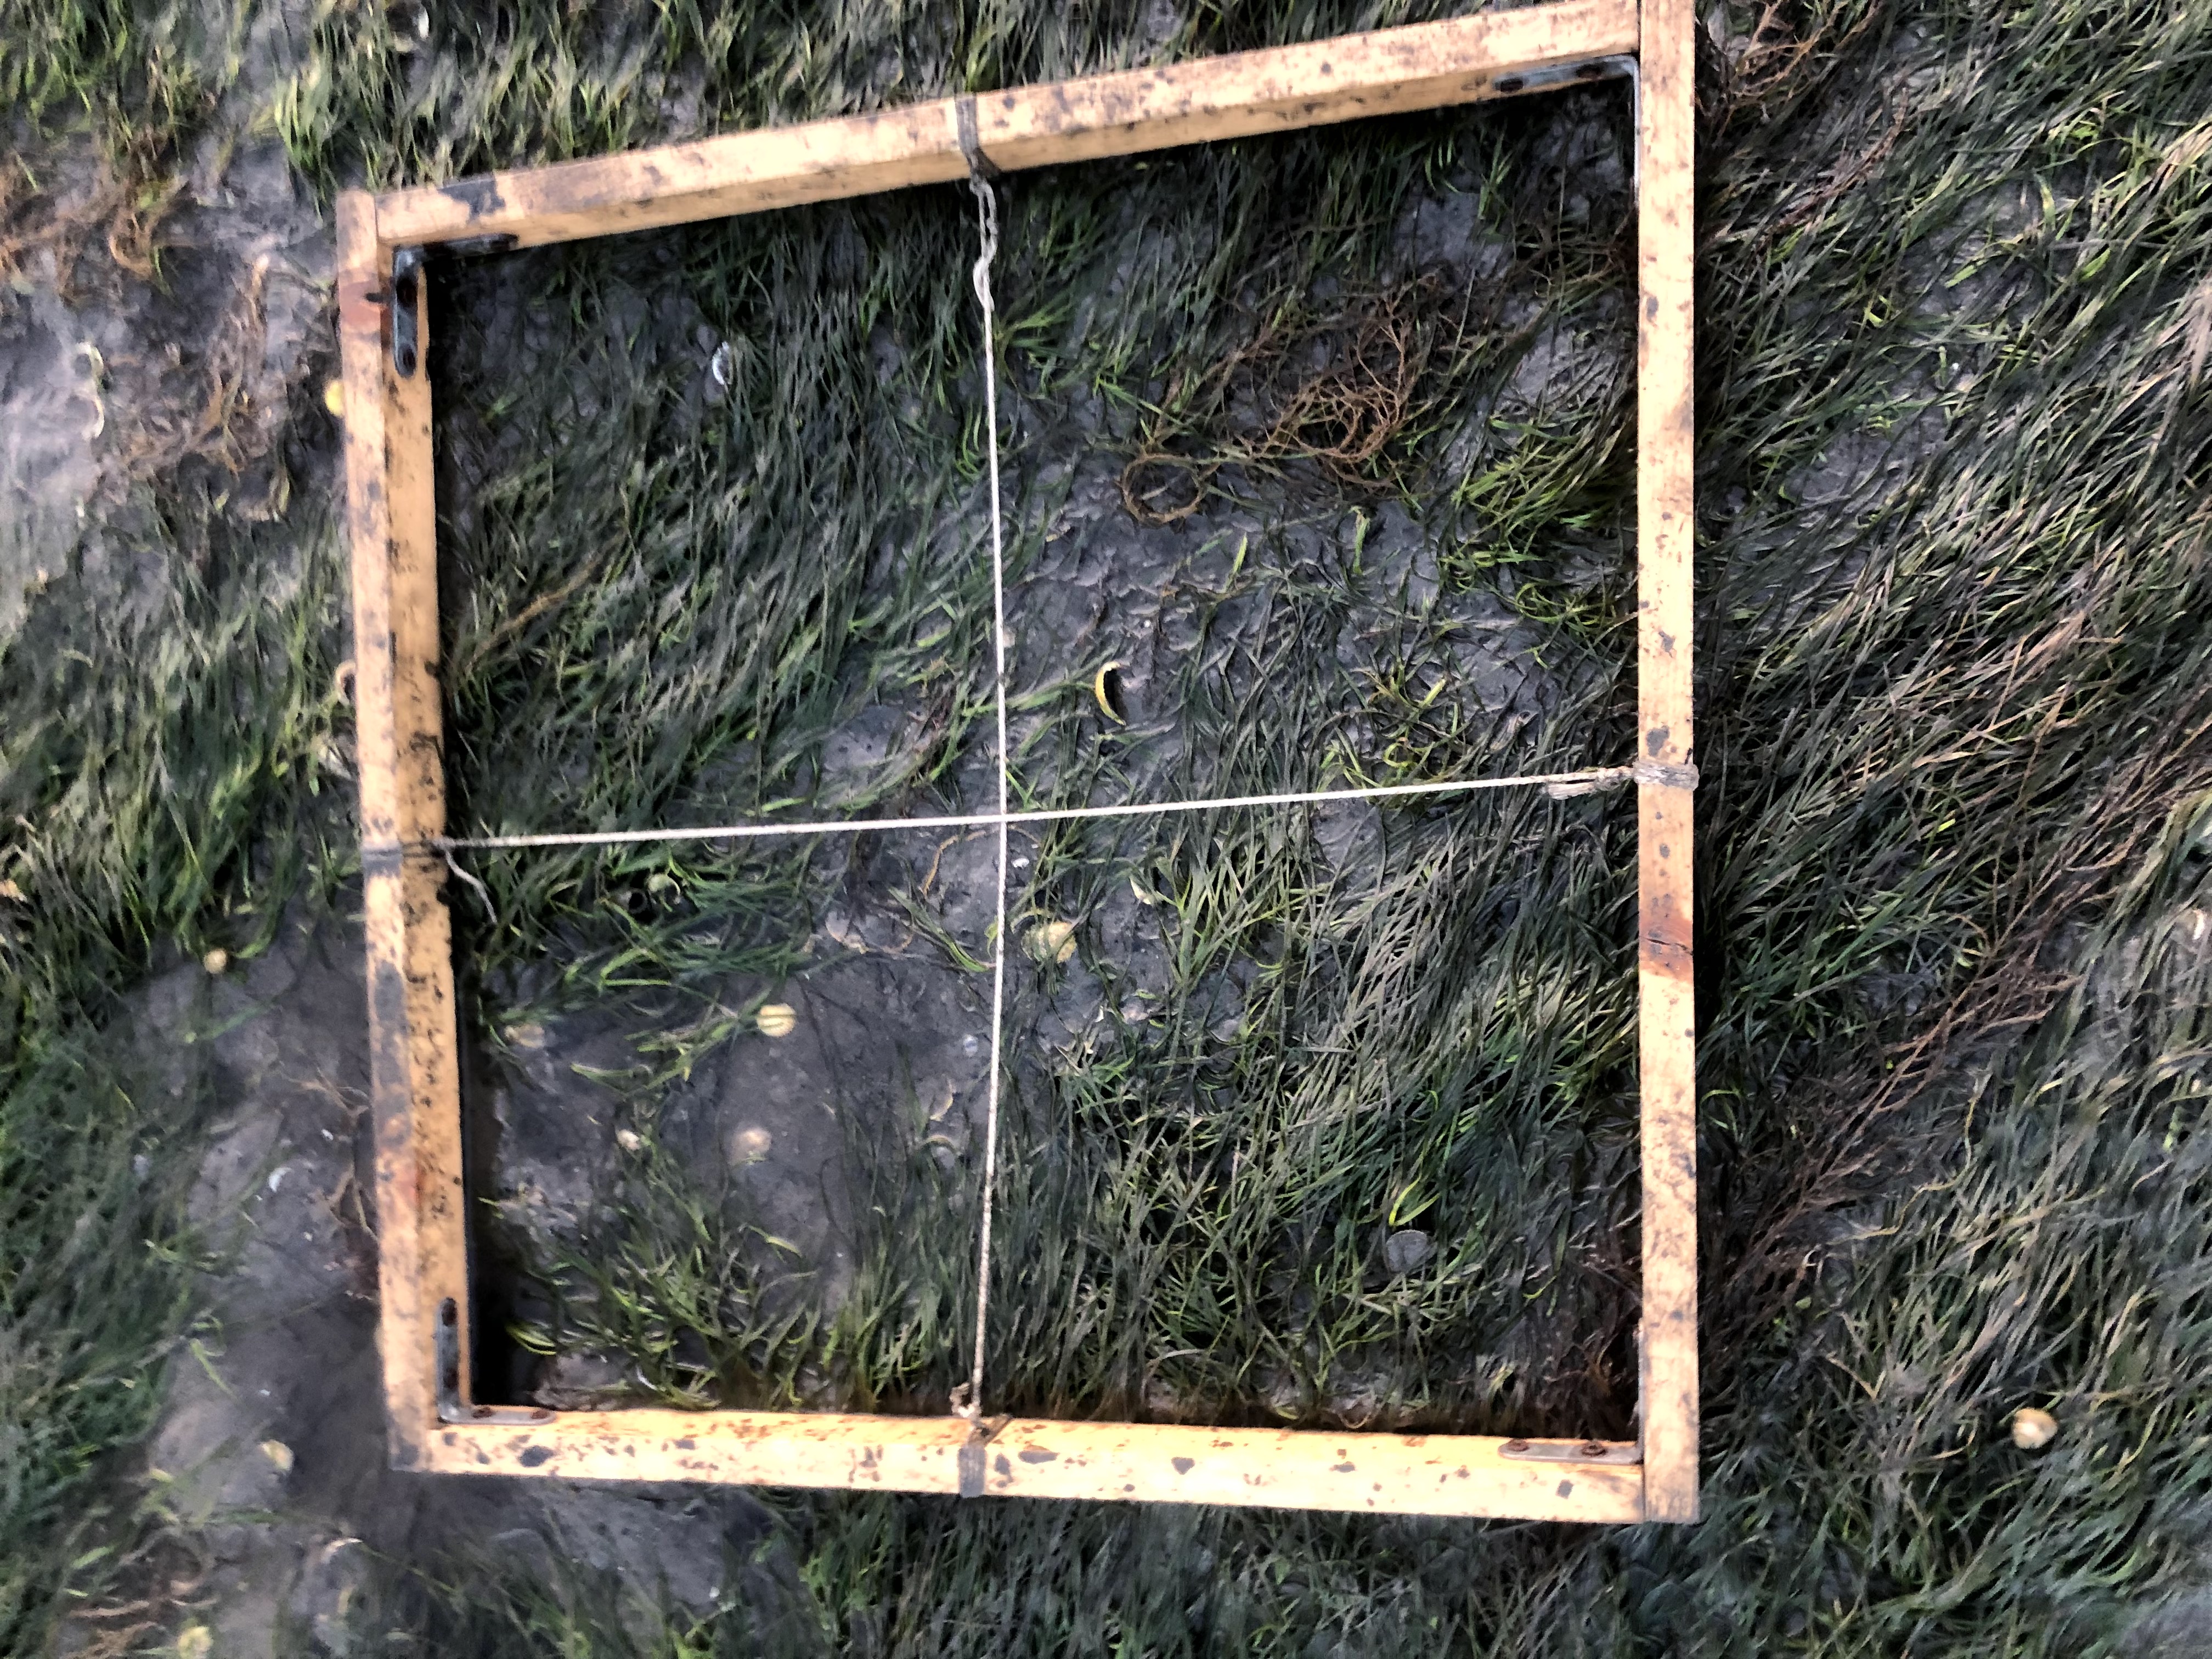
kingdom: Plantae
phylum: Tracheophyta
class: Liliopsida
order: Alismatales
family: Zosteraceae
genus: Zostera
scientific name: Zostera noltii
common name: Dwarf eelgrass
